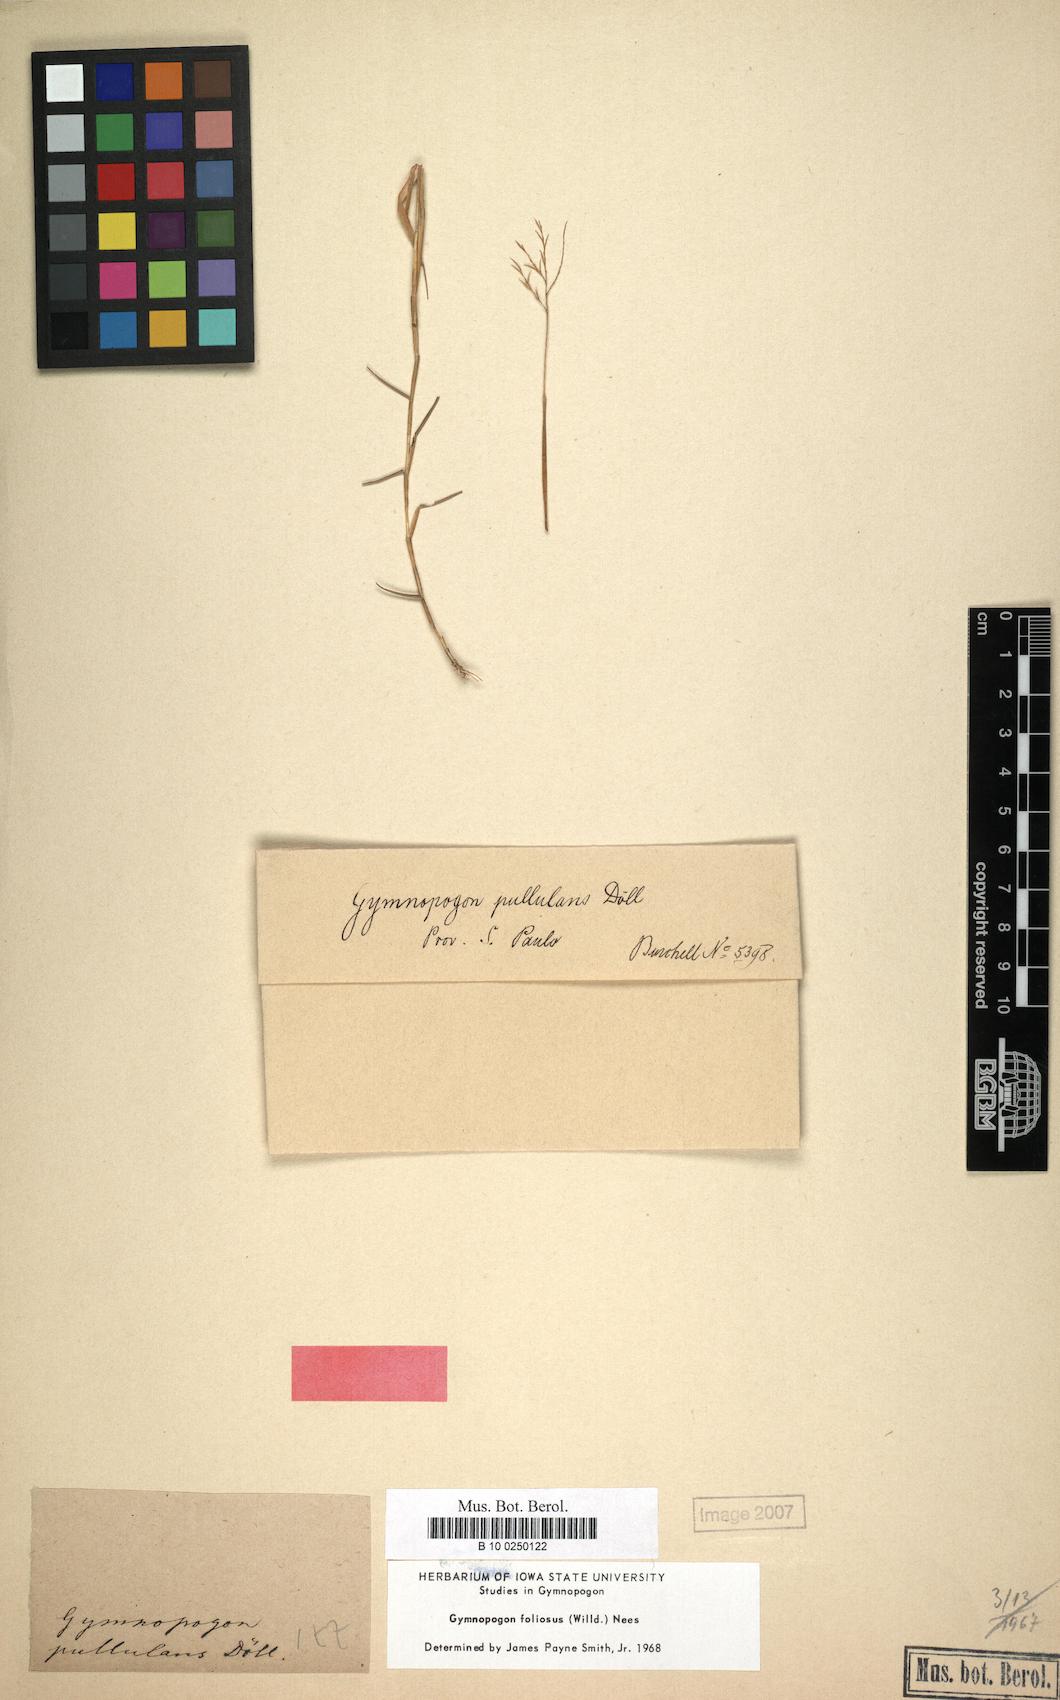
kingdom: Plantae
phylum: Tracheophyta
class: Liliopsida
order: Poales
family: Poaceae
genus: Gymnopogon
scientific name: Gymnopogon foliosus
